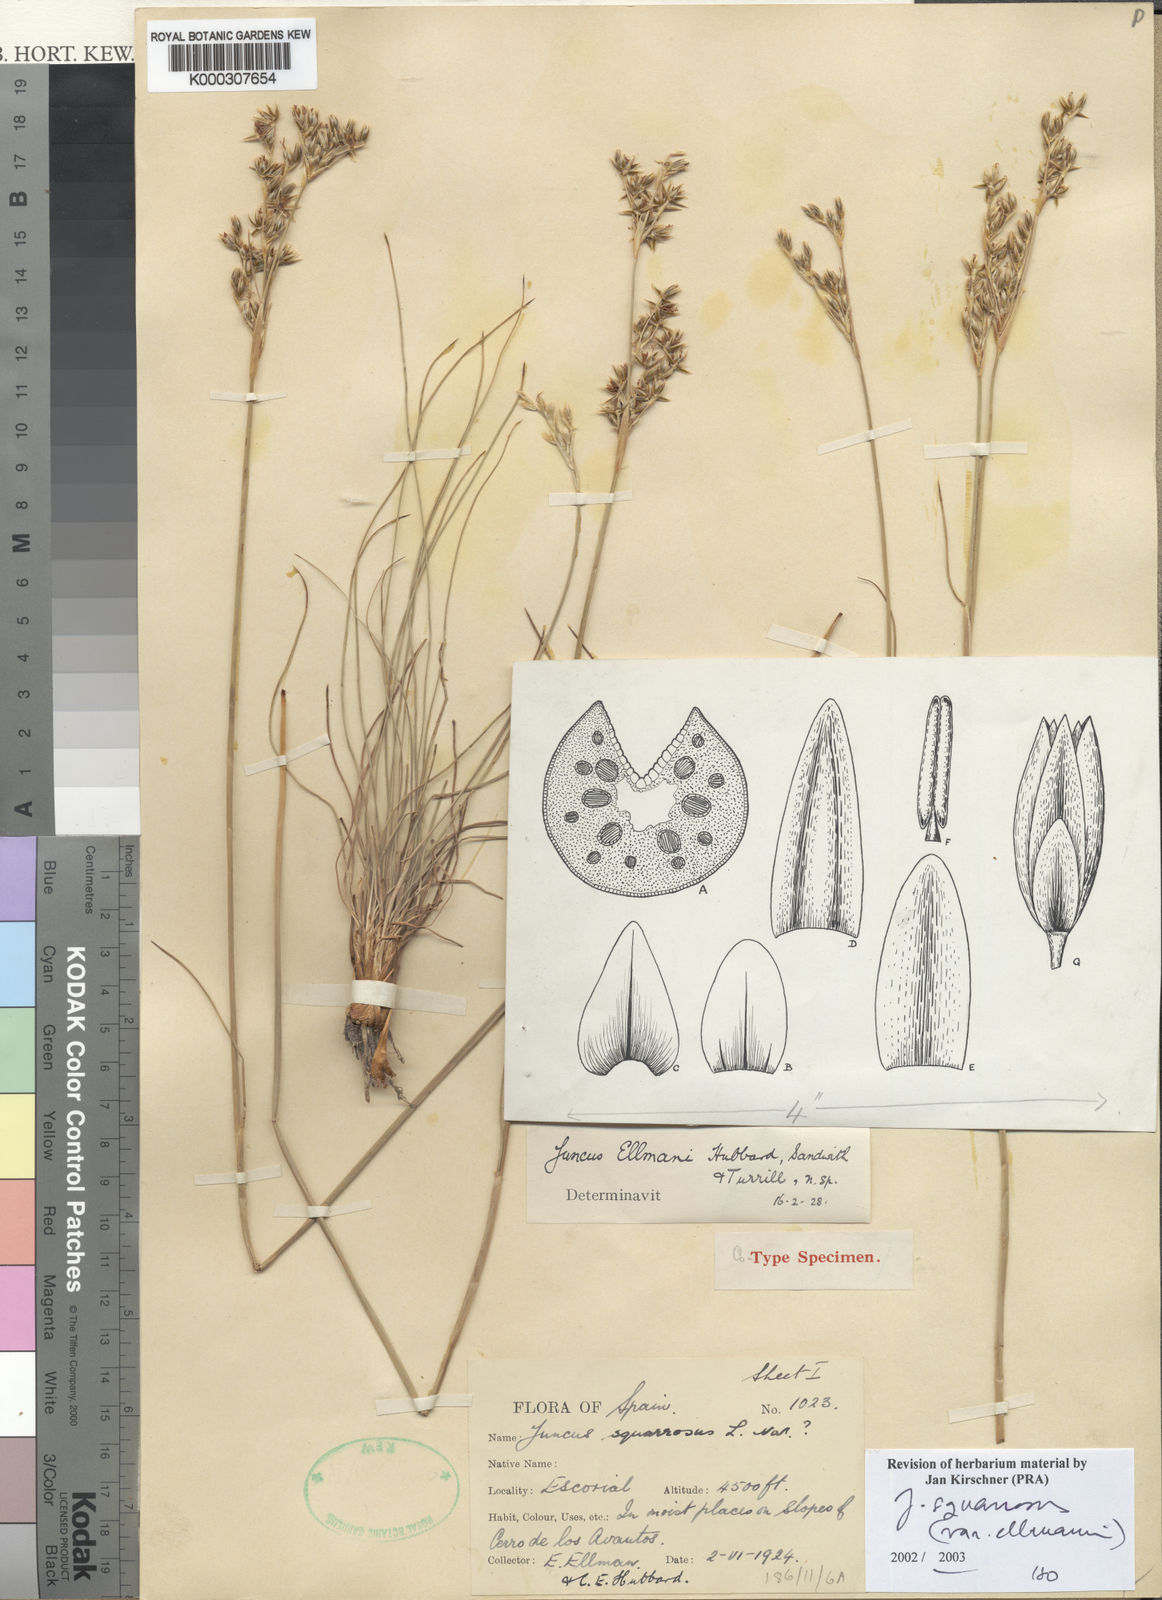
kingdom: Plantae
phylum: Tracheophyta
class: Liliopsida
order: Poales
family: Juncaceae
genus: Juncus
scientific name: Juncus squarrosus
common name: Heath rush
